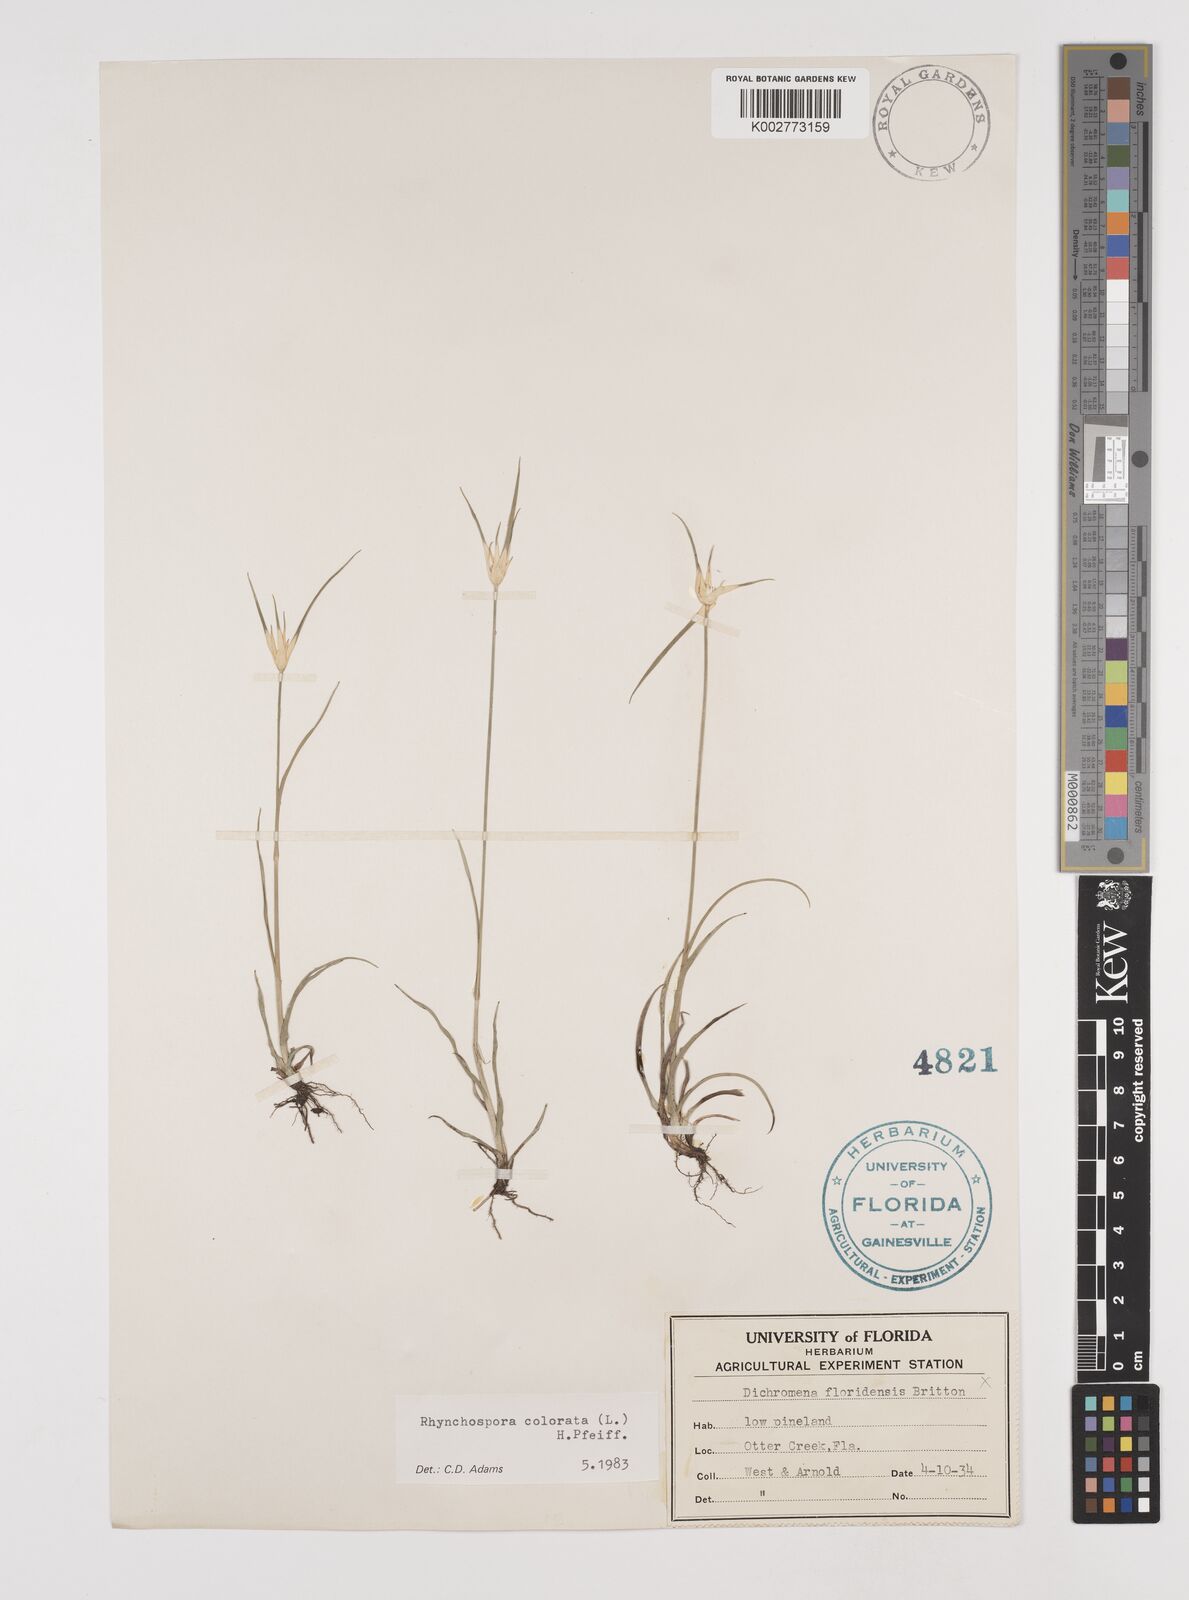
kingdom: Plantae
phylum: Tracheophyta
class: Liliopsida
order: Poales
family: Cyperaceae
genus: Rhynchospora
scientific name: Rhynchospora colorata
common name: Star sedge
